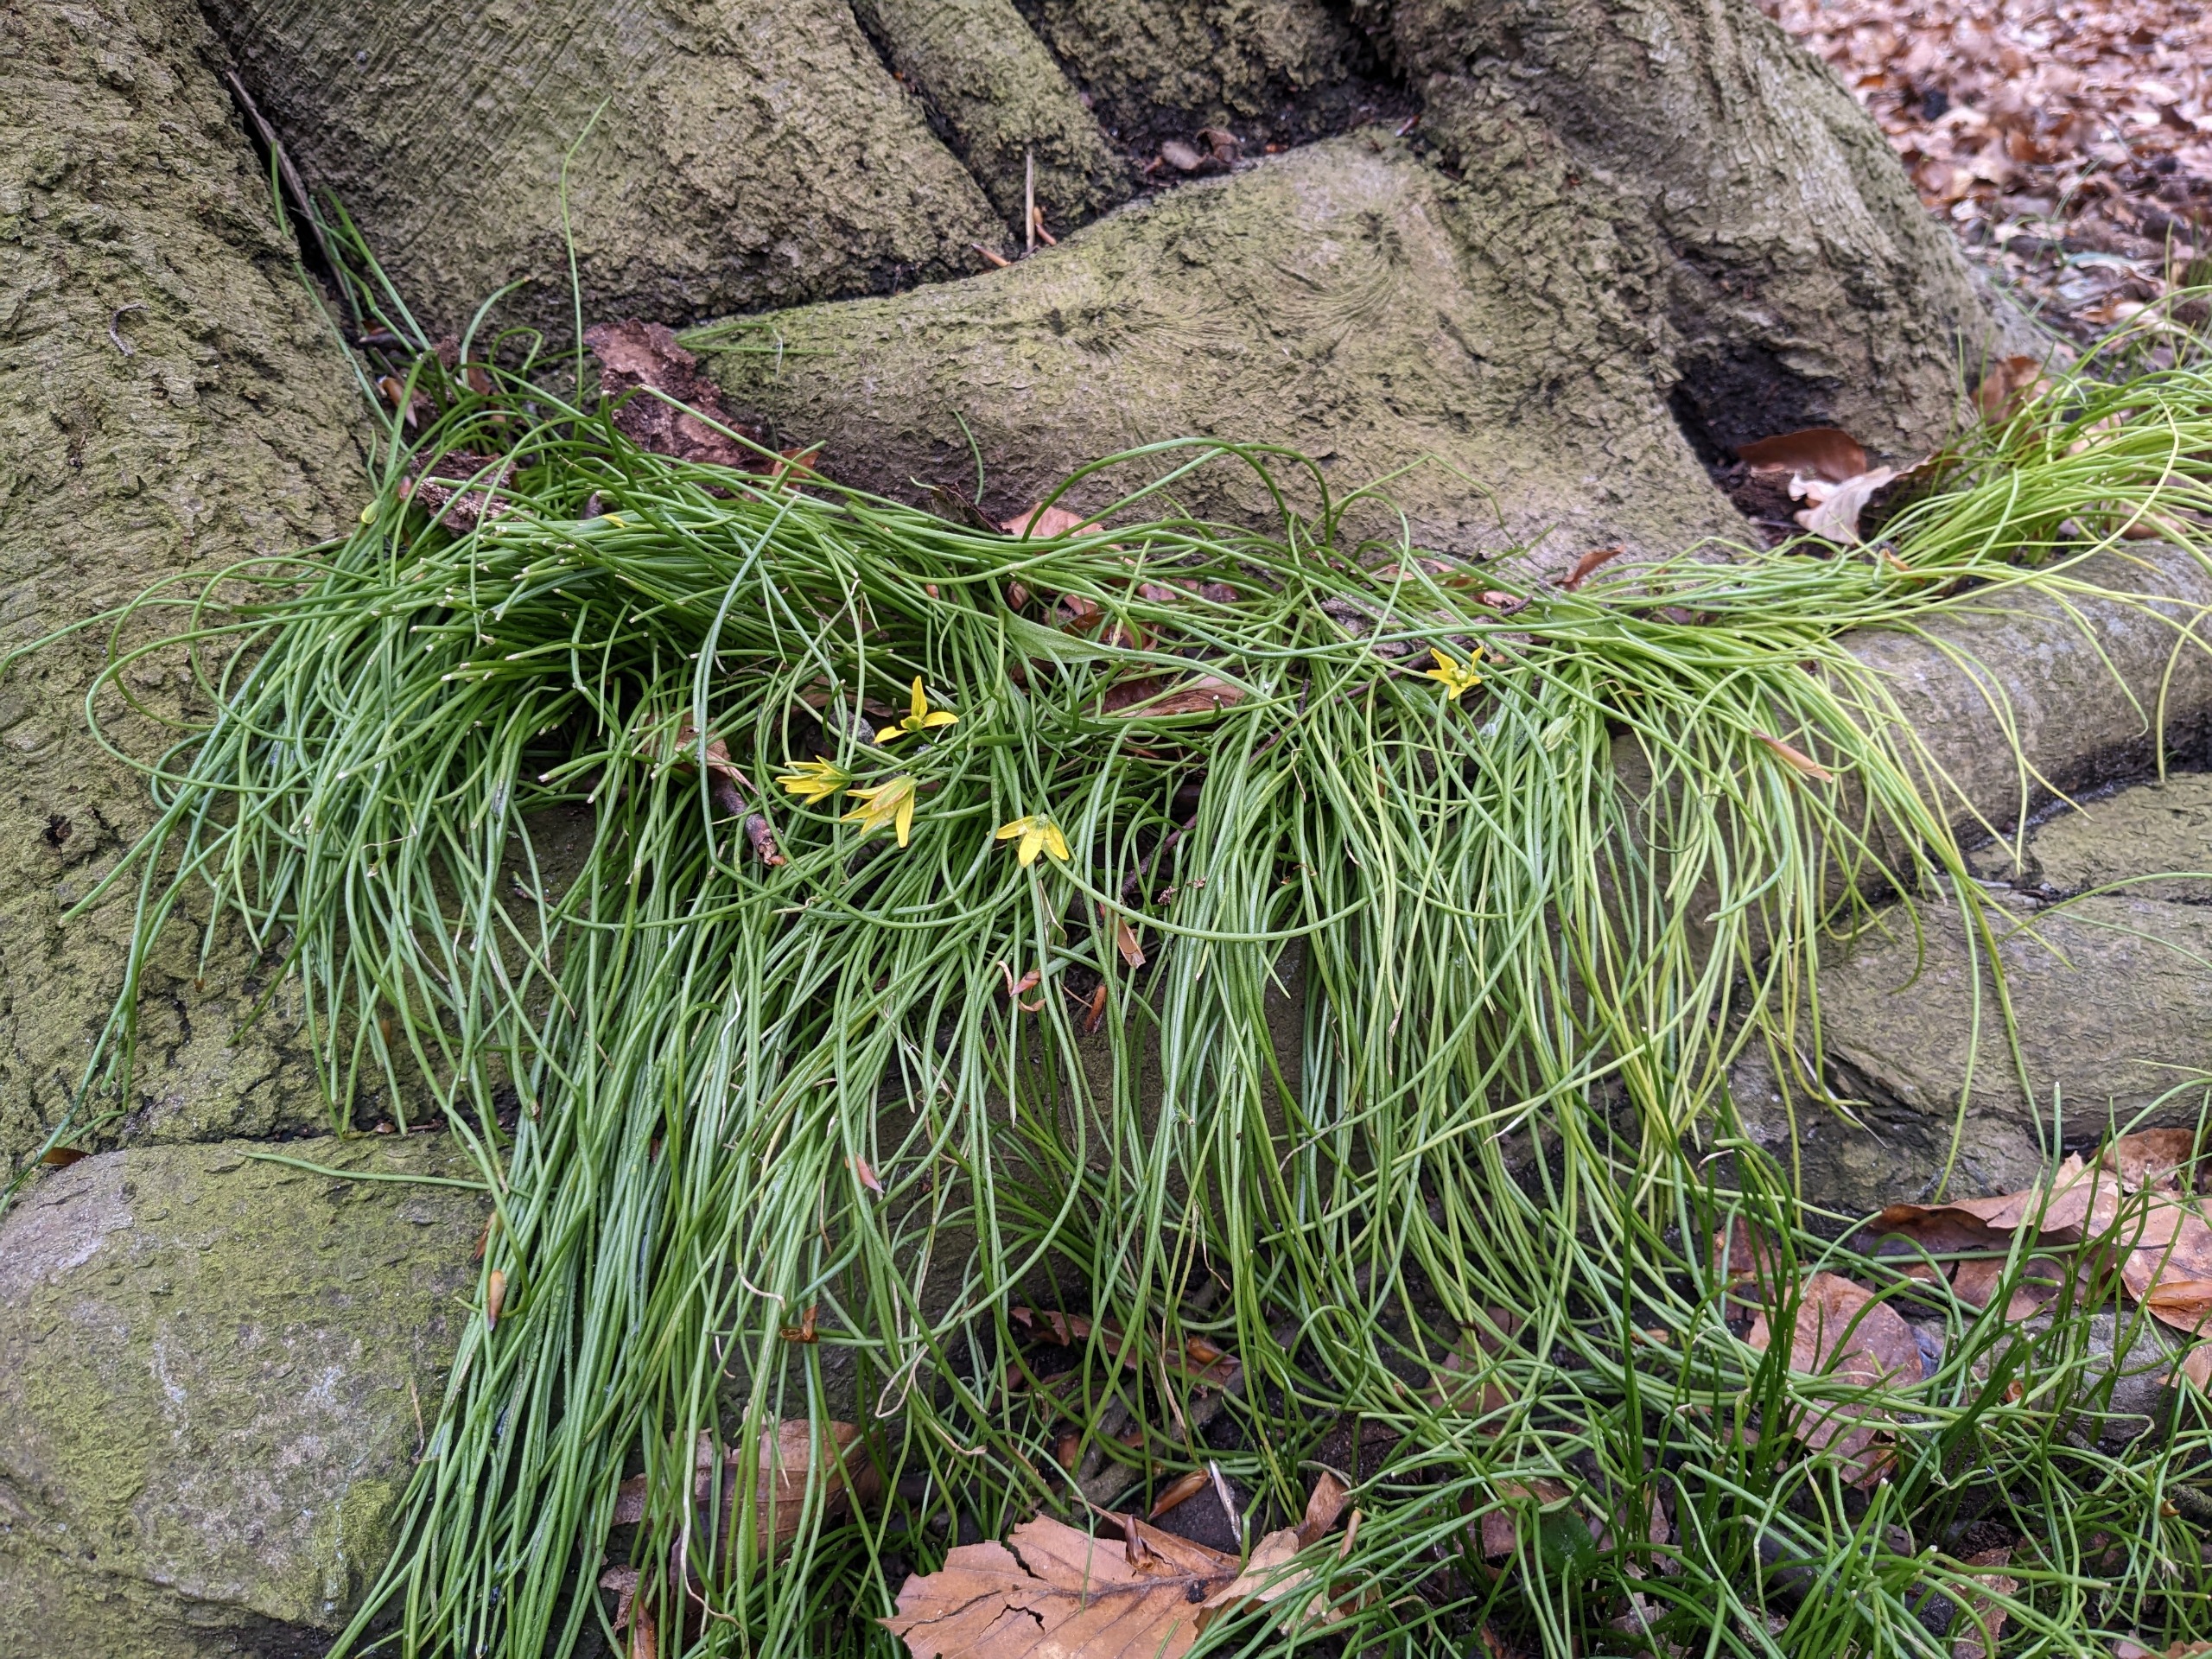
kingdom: Plantae
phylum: Tracheophyta
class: Liliopsida
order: Liliales
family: Liliaceae
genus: Gagea
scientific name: Gagea spathacea
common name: Hylster-guldstjerne
